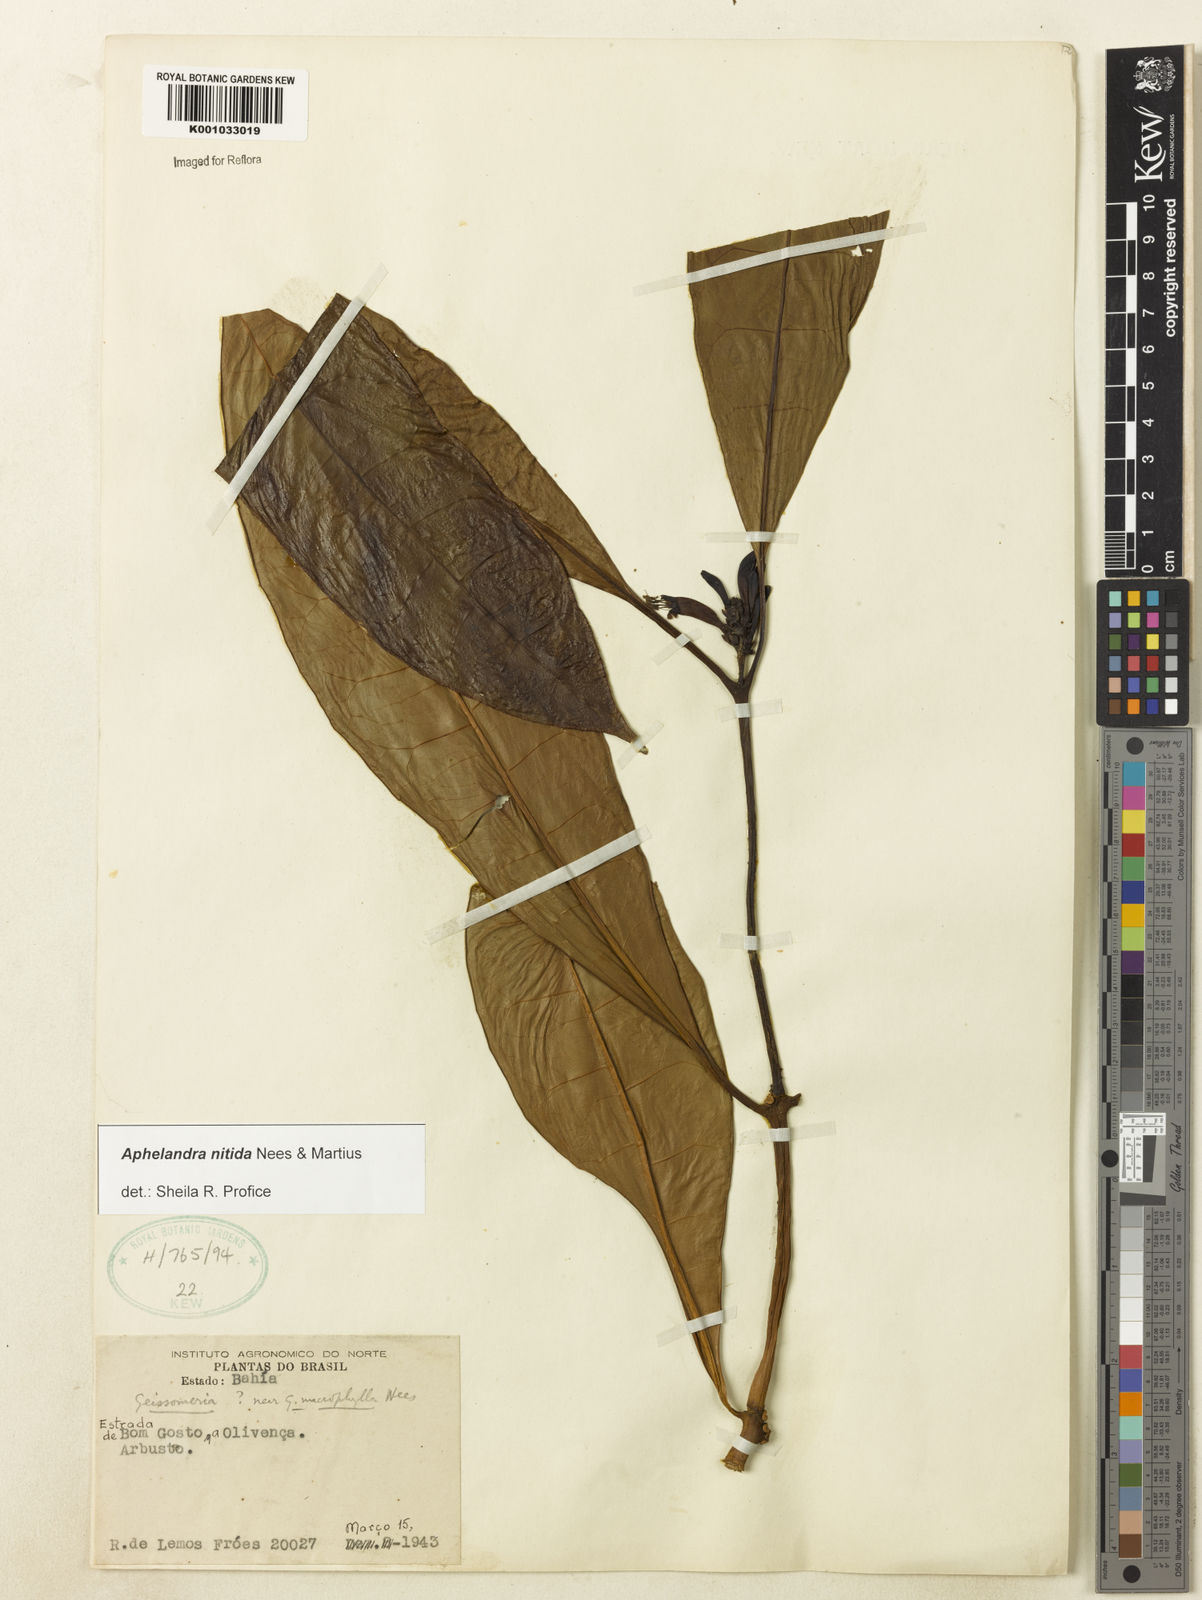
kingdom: Plantae
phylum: Tracheophyta
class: Magnoliopsida
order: Lamiales
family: Acanthaceae
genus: Aphelandra
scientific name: Aphelandra nitida
